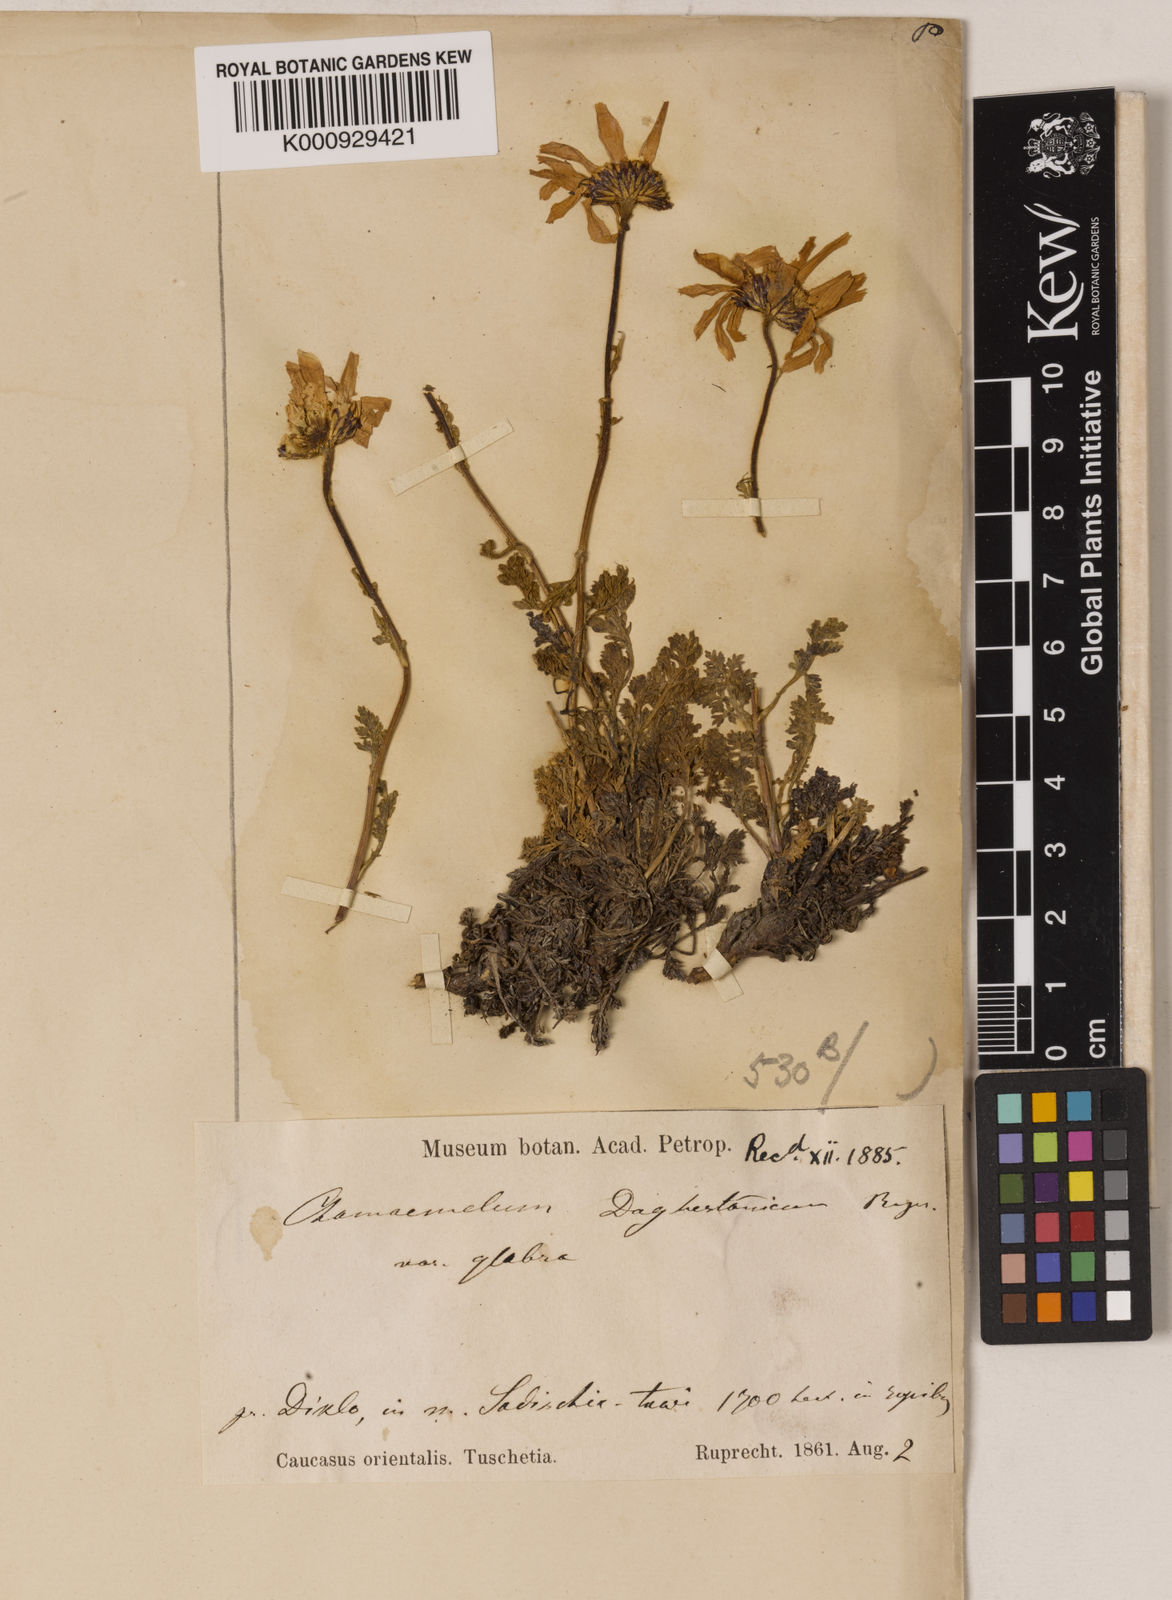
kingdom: Plantae
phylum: Tracheophyta
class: Magnoliopsida
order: Asterales
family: Asteraceae
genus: Tripleurospermum
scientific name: Tripleurospermum daghestanicum
